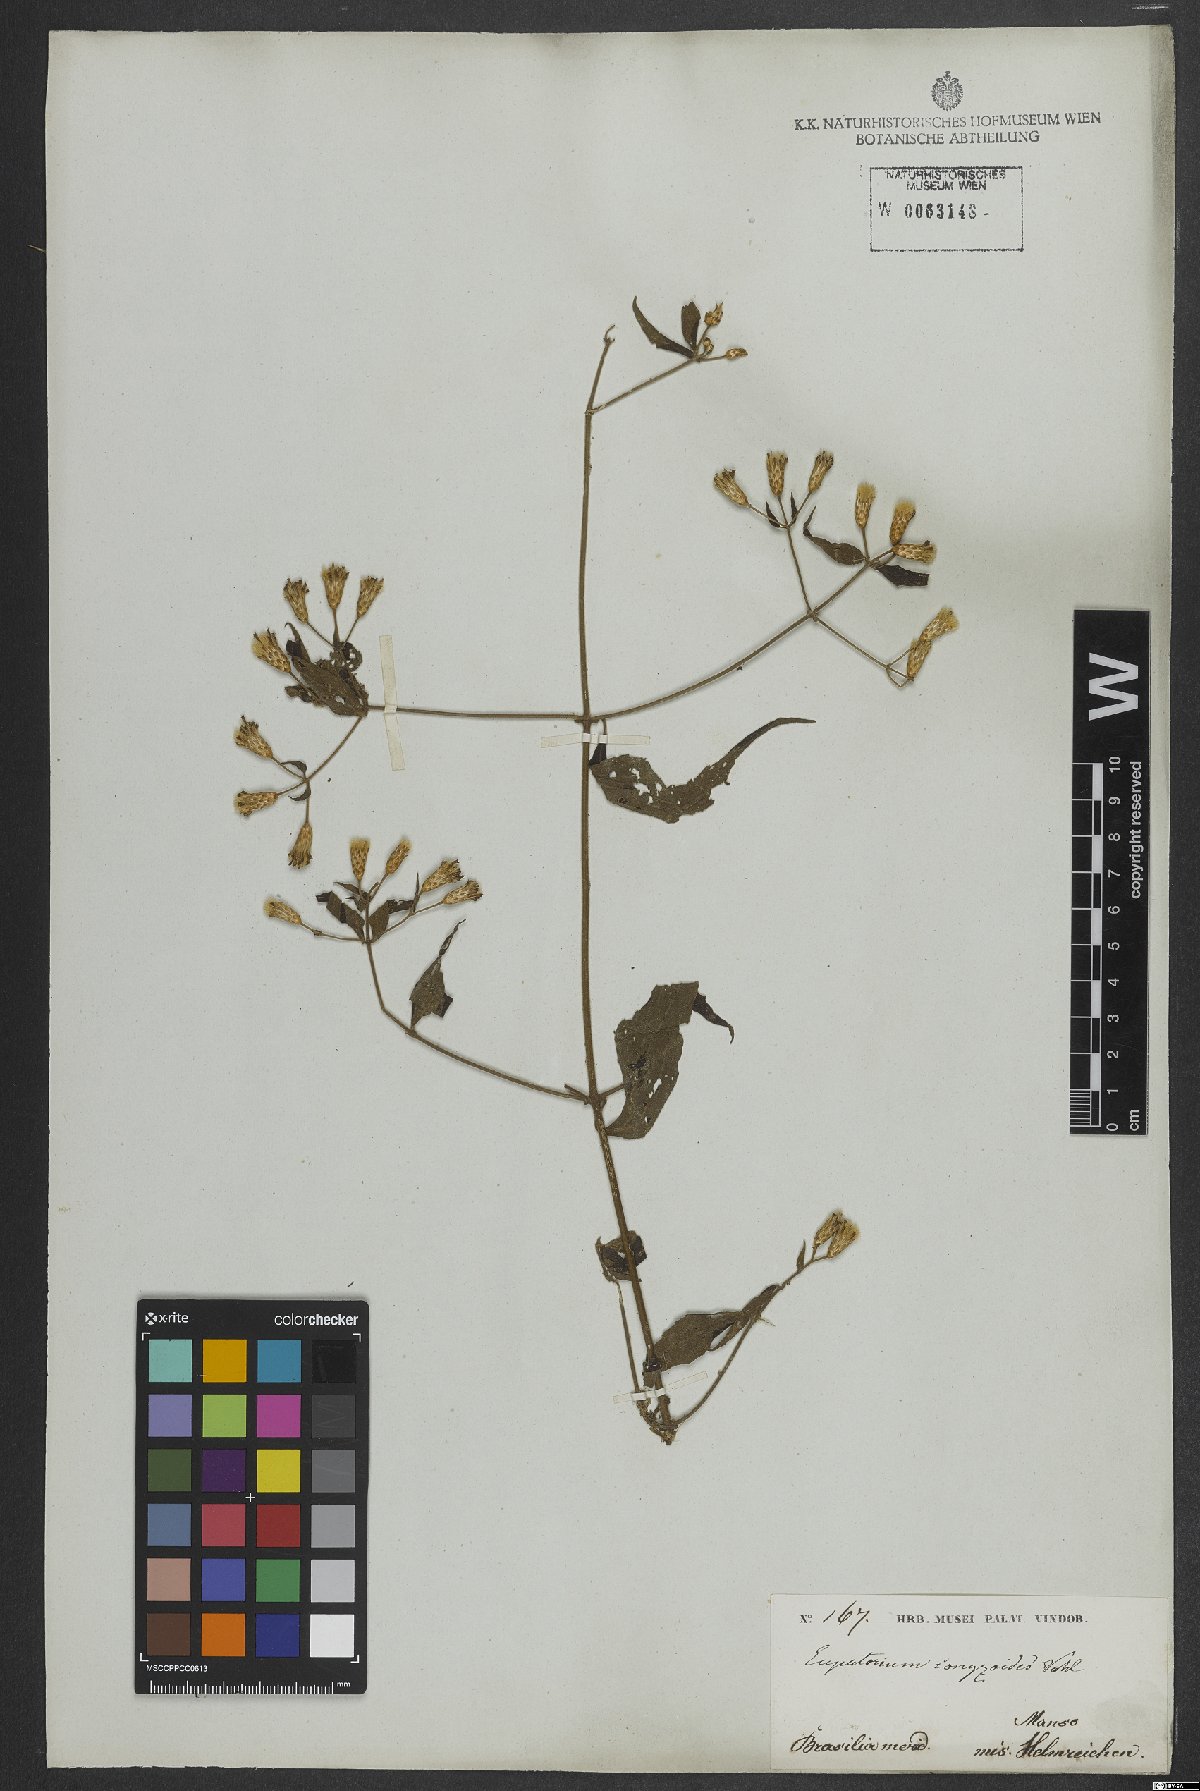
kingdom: Plantae
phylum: Tracheophyta
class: Magnoliopsida
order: Asterales
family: Asteraceae
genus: Chromolaena
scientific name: Chromolaena odorata
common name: Siamweed
